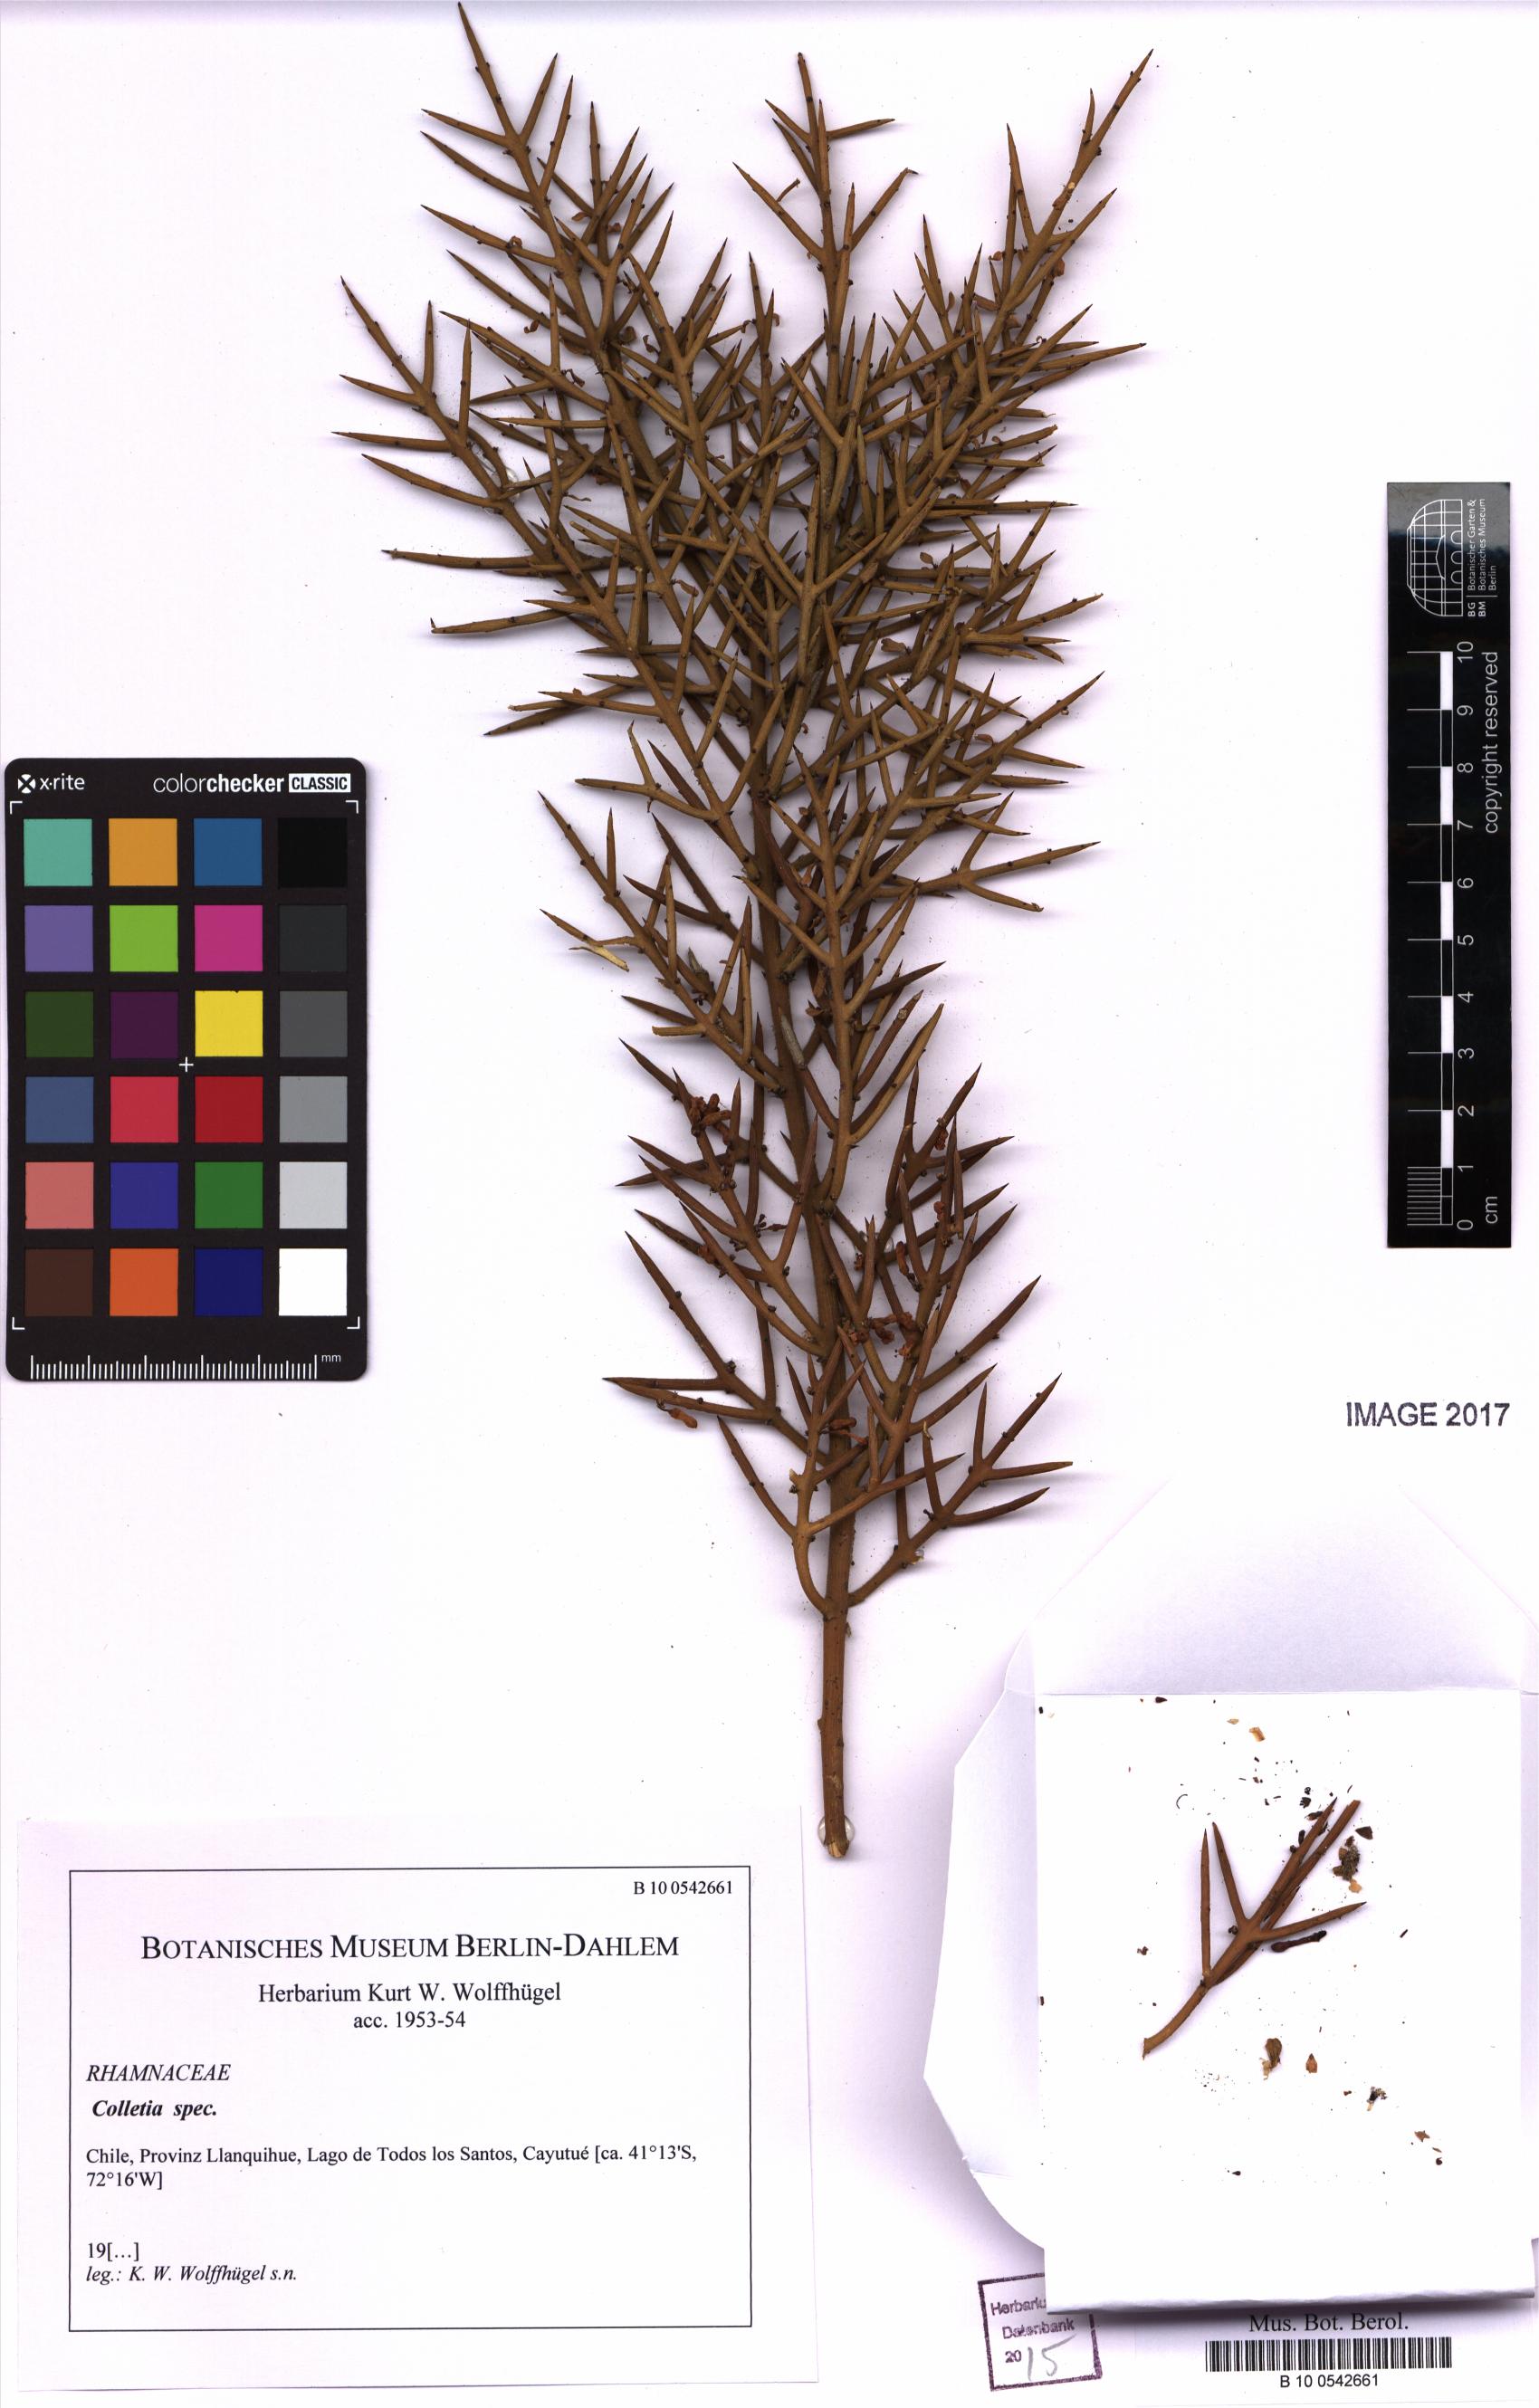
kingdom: Plantae
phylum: Tracheophyta
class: Magnoliopsida
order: Rosales
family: Rhamnaceae
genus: Colletia
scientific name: Colletia
